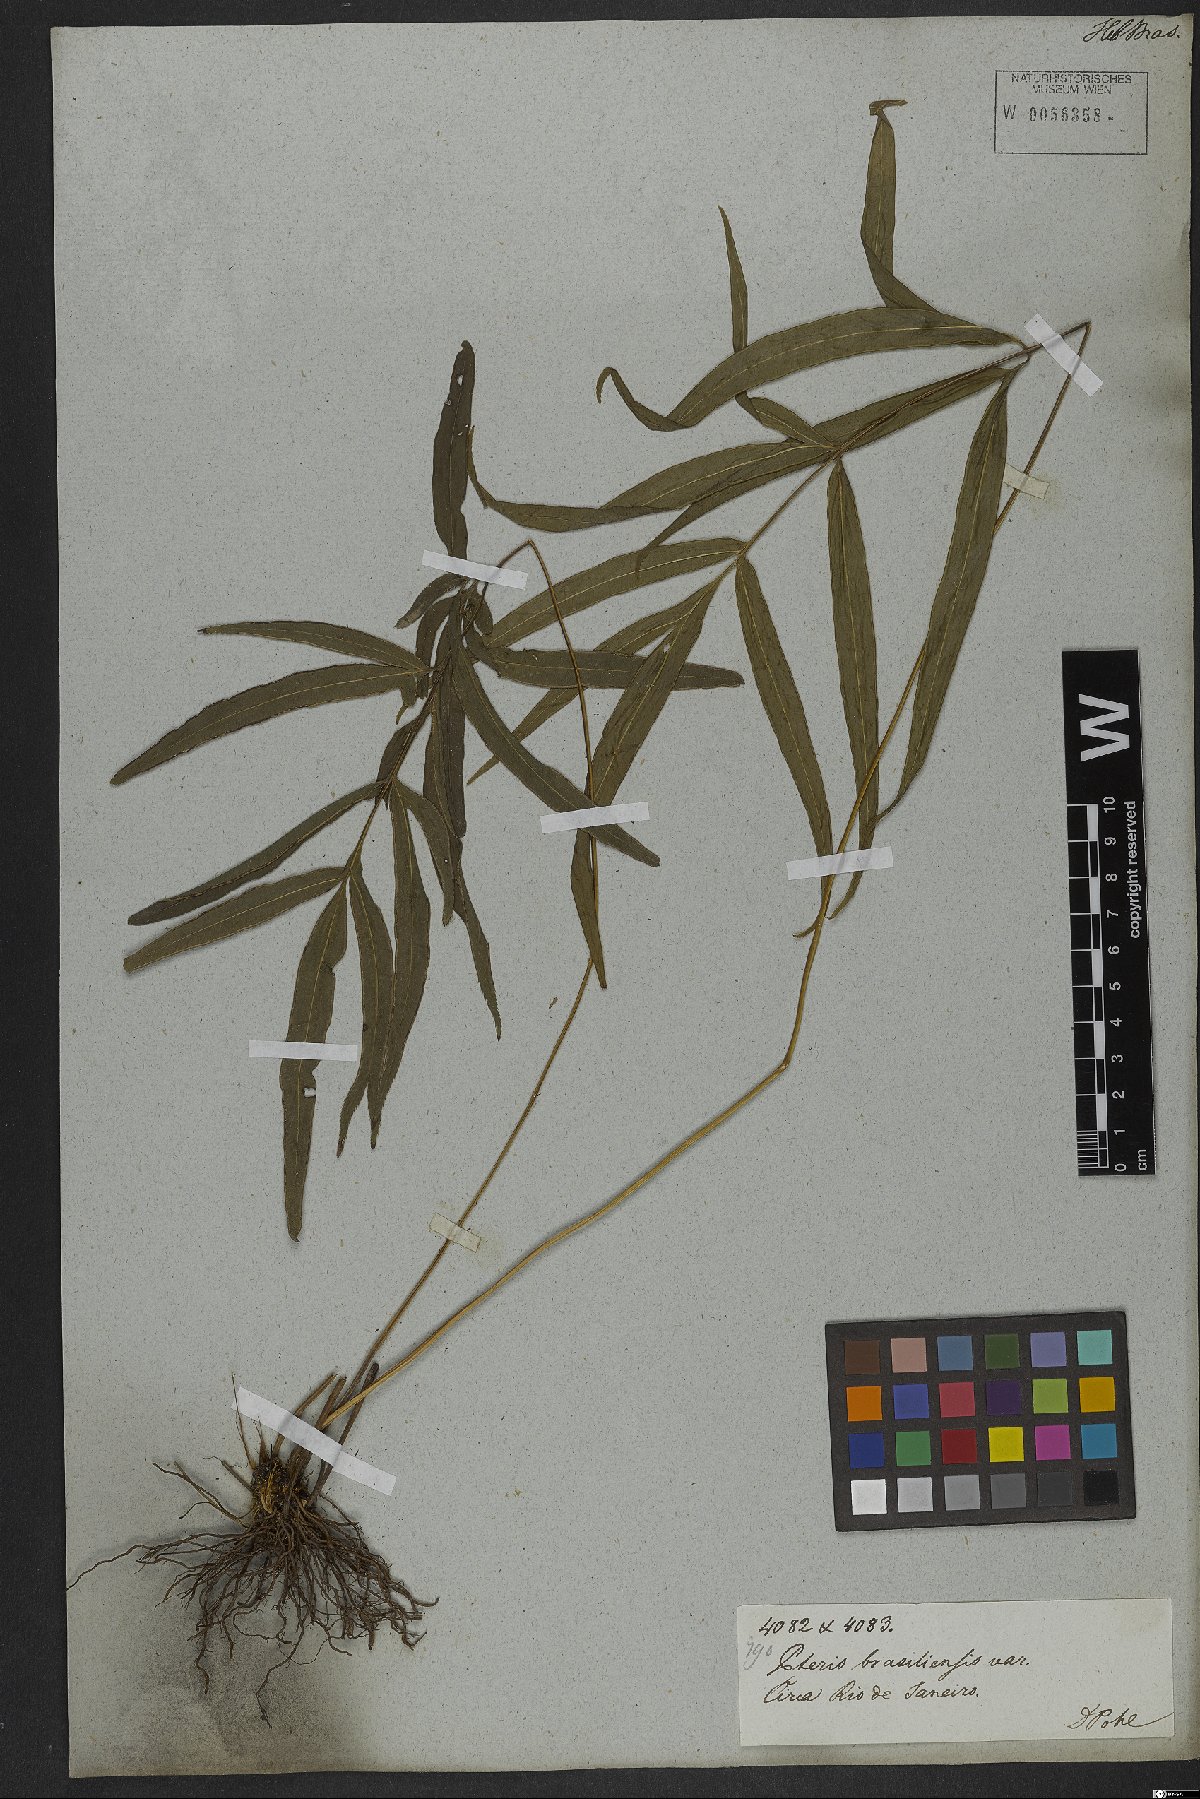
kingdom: Plantae
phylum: Tracheophyta
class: Polypodiopsida
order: Polypodiales
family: Pteridaceae
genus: Pteris
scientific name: Pteris denticulata
